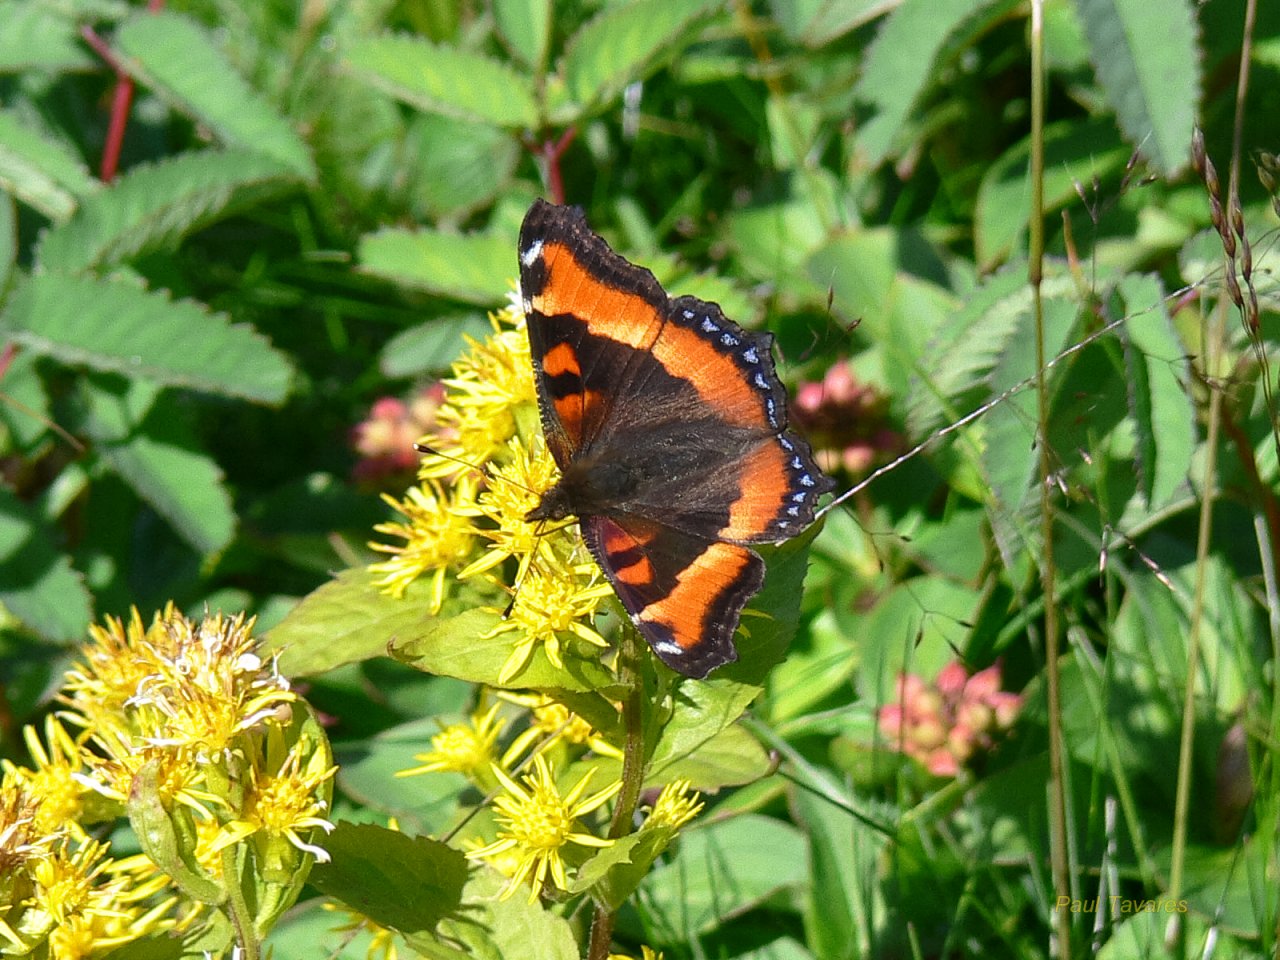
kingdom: Animalia
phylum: Arthropoda
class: Insecta
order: Lepidoptera
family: Nymphalidae
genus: Aglais
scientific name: Aglais milberti
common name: Milbert's Tortoiseshell
